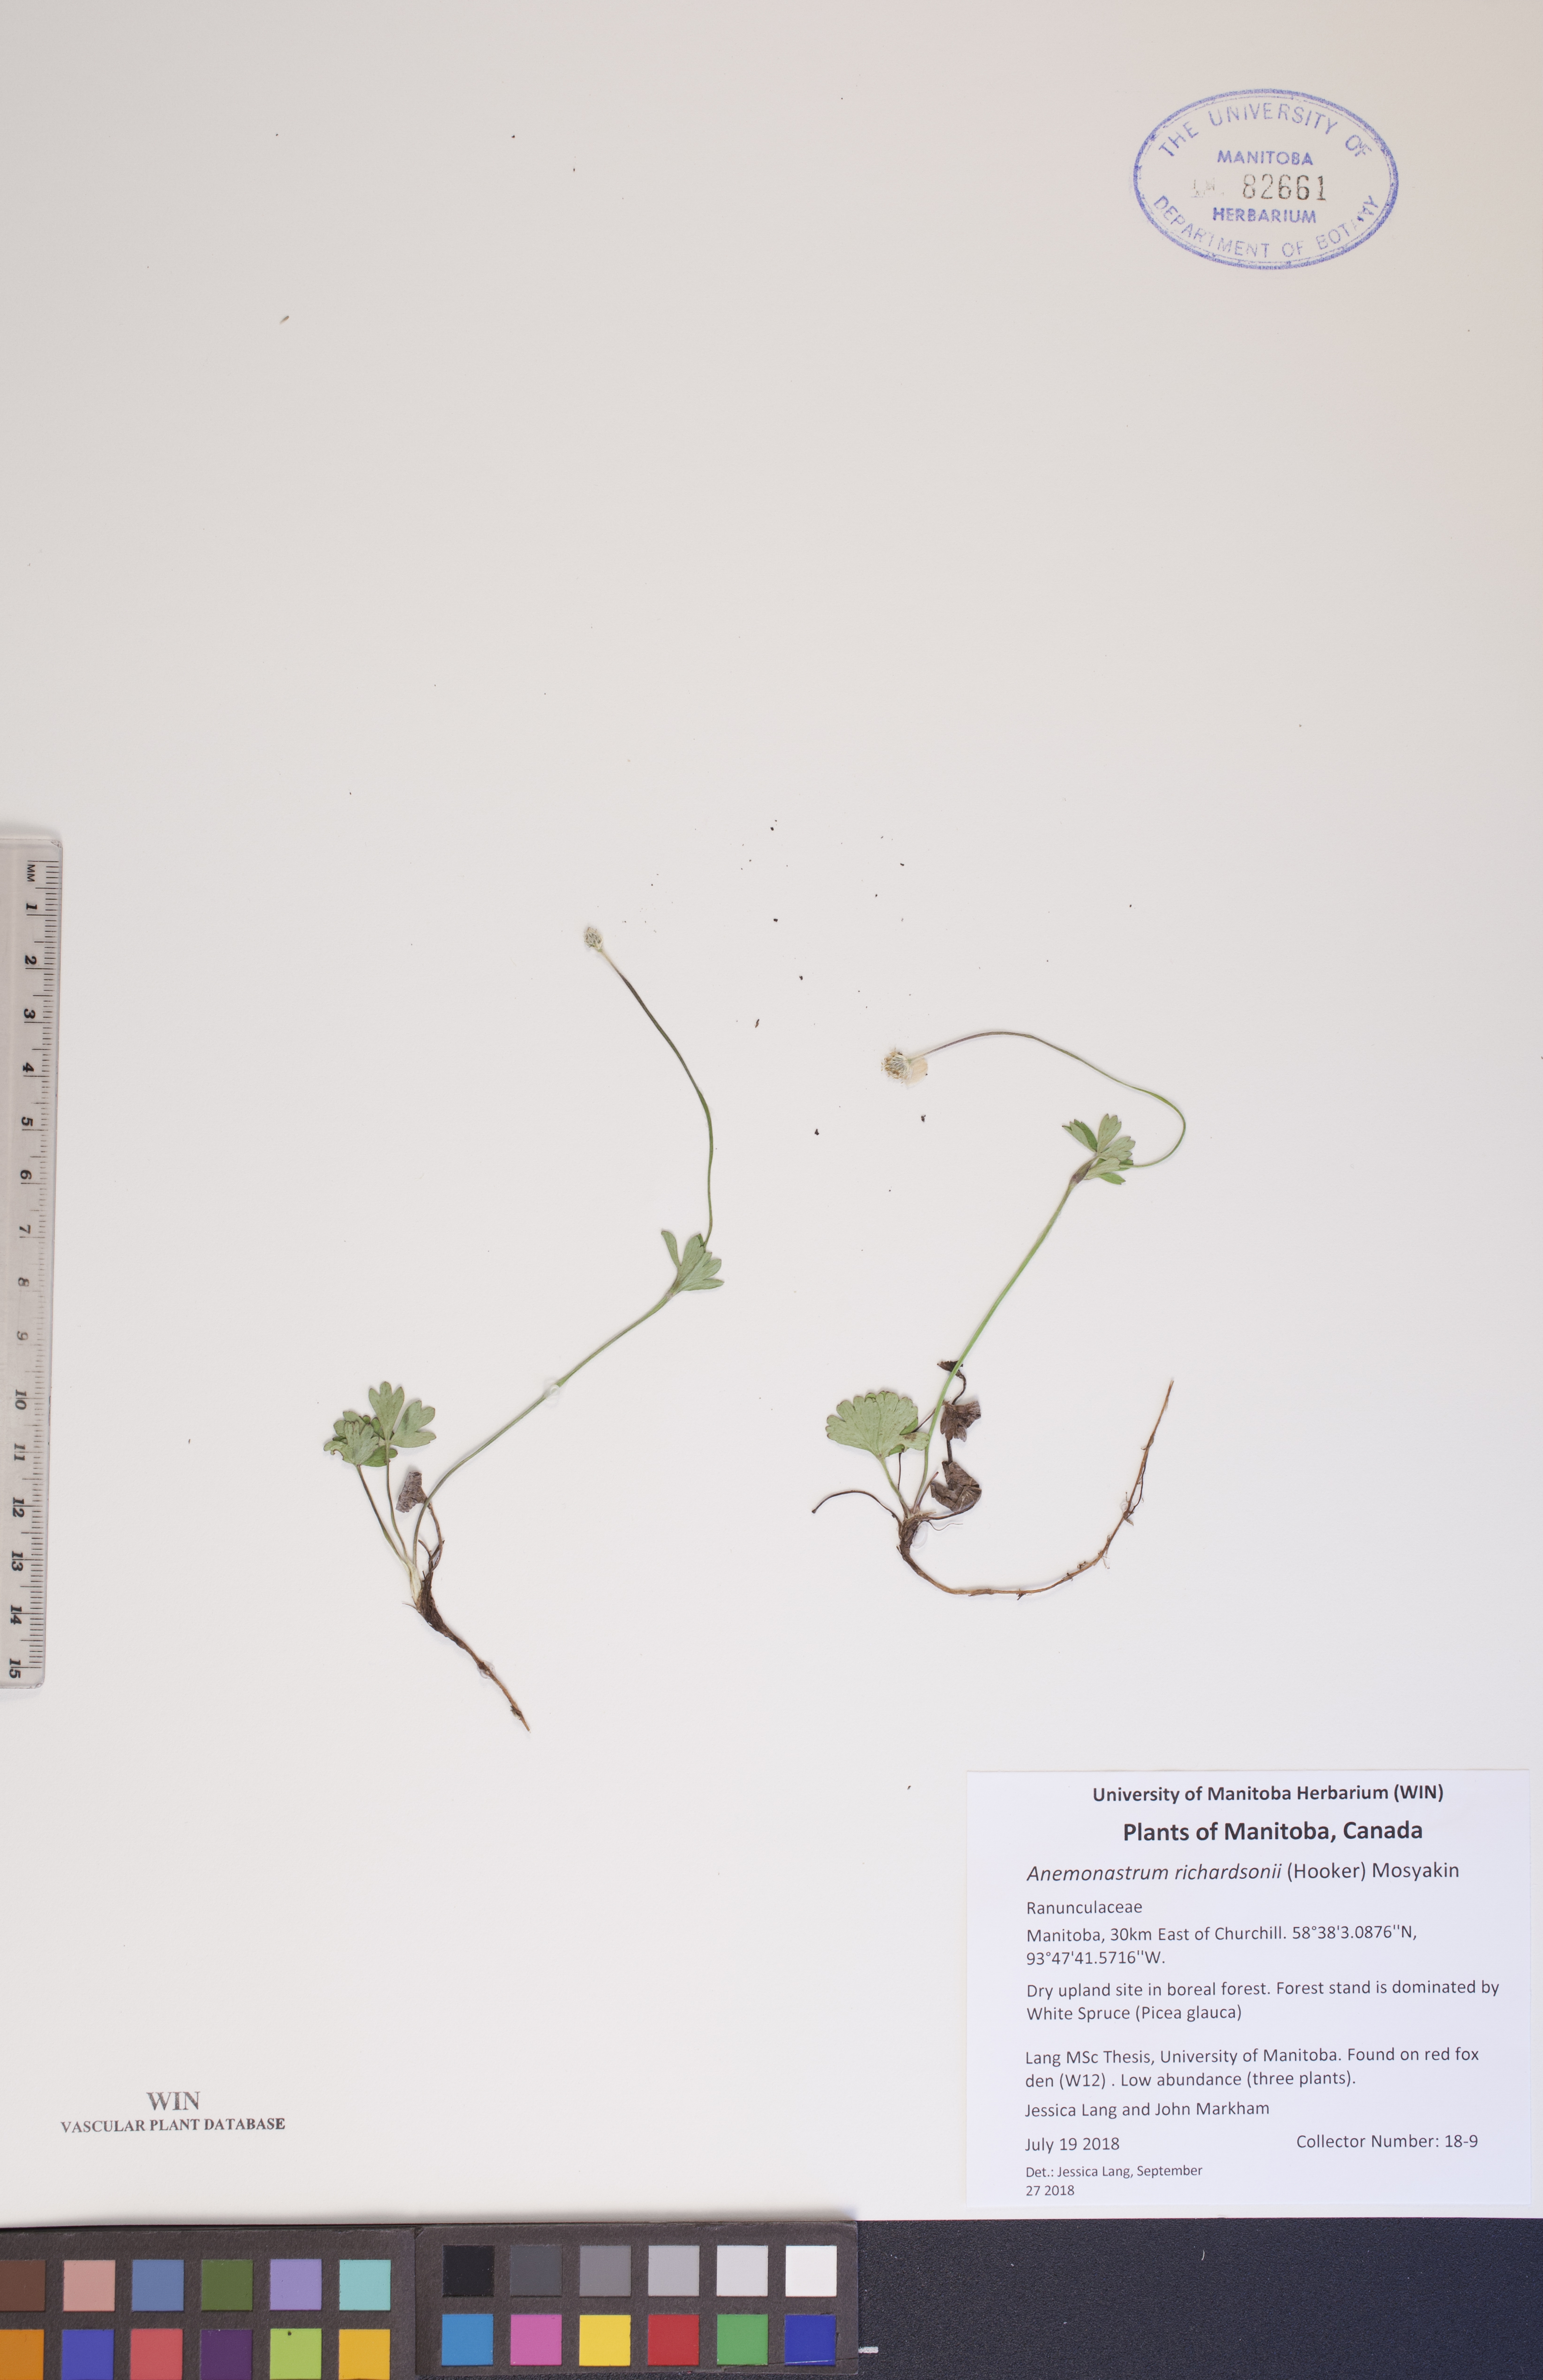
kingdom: Plantae
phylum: Tracheophyta
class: Magnoliopsida
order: Ranunculales
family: Ranunculaceae
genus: Anemonastrum
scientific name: Anemonastrum richardsonii
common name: Richardson's anemone
